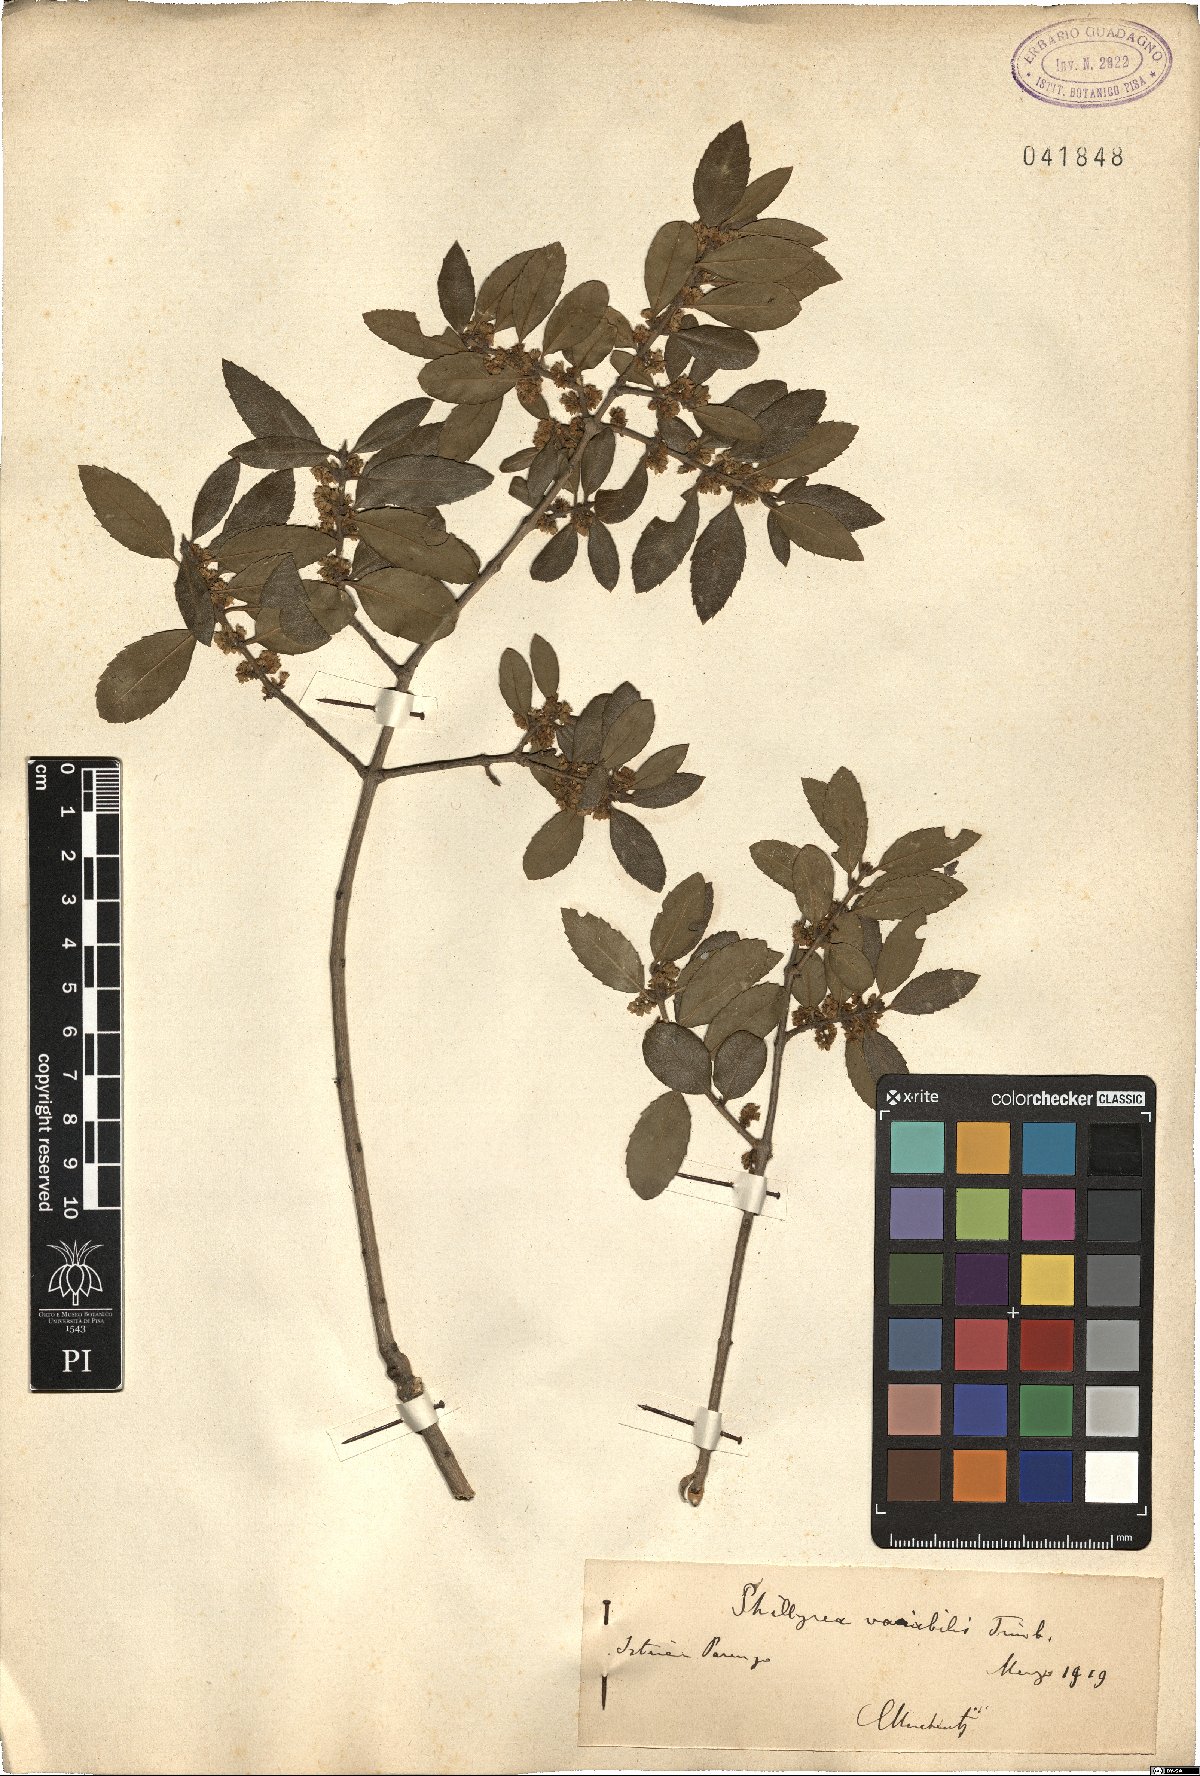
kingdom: Plantae
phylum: Tracheophyta
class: Magnoliopsida
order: Lamiales
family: Oleaceae
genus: Phillyrea
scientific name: Phillyrea latifolia
